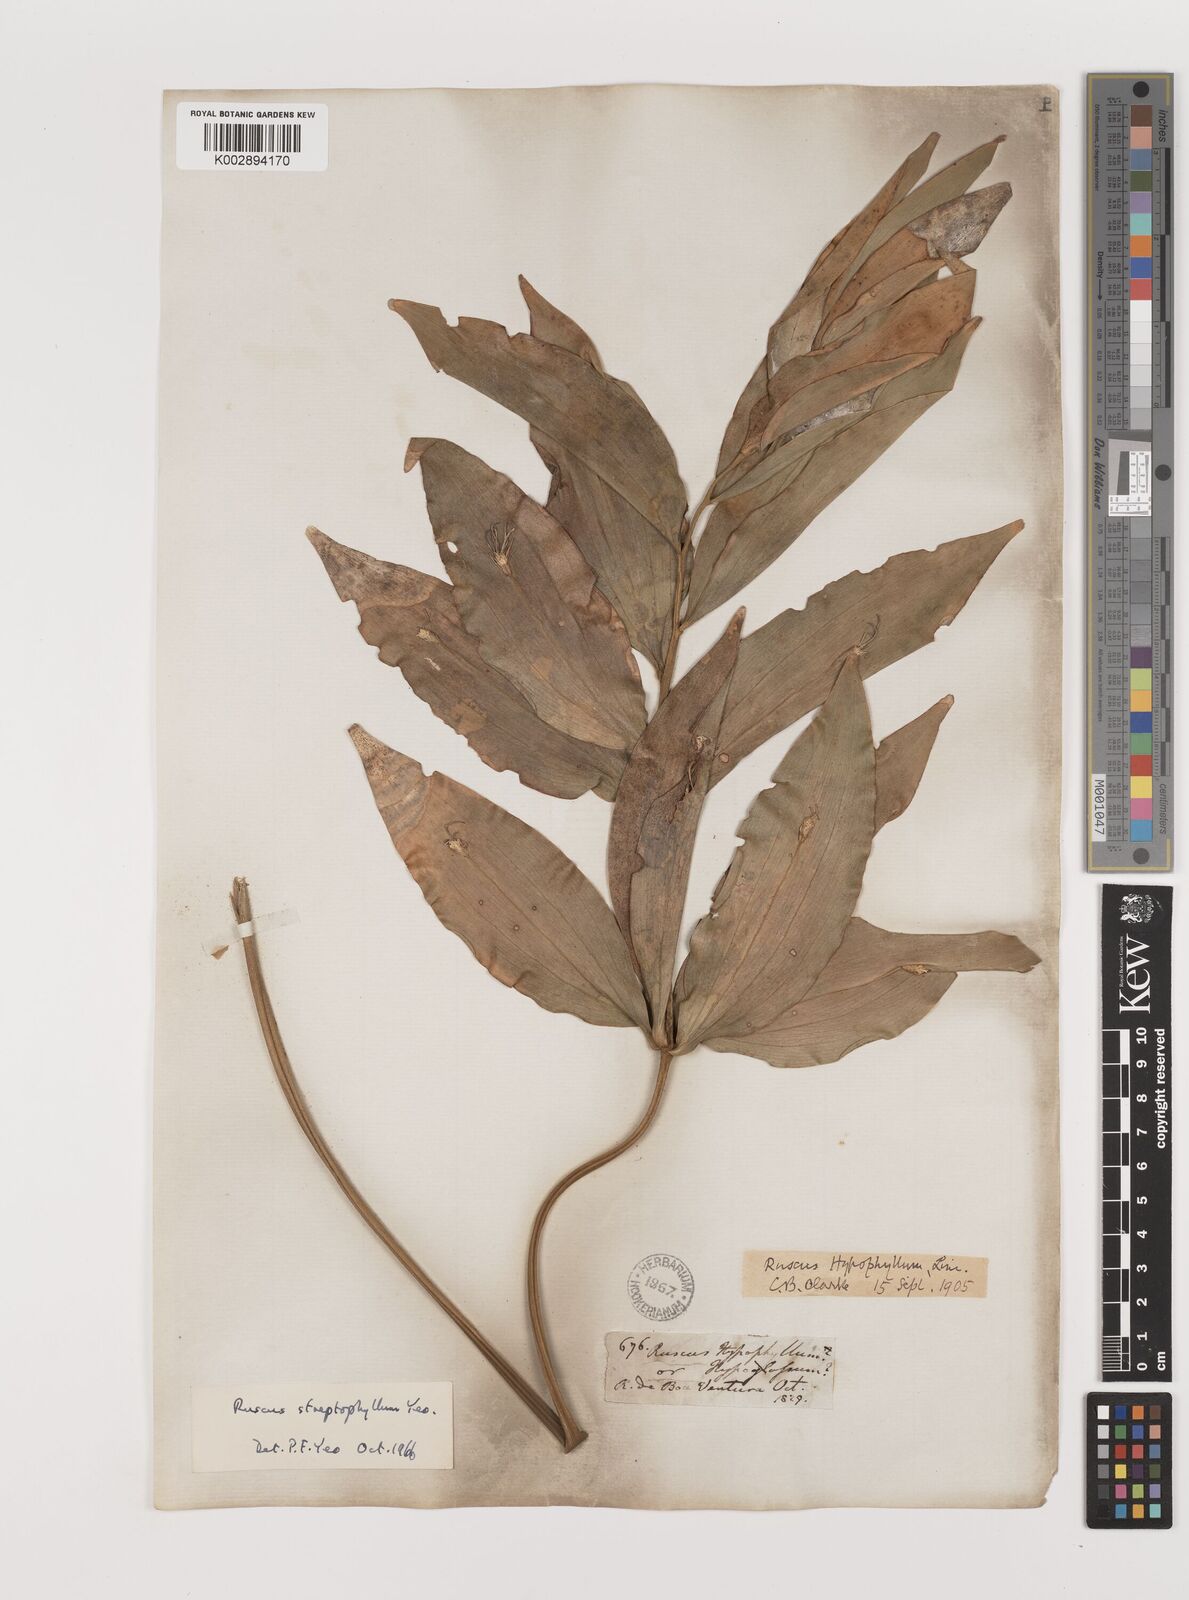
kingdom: Plantae
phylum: Tracheophyta
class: Liliopsida
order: Asparagales
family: Asparagaceae
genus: Ruscus
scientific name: Ruscus hypophyllum
